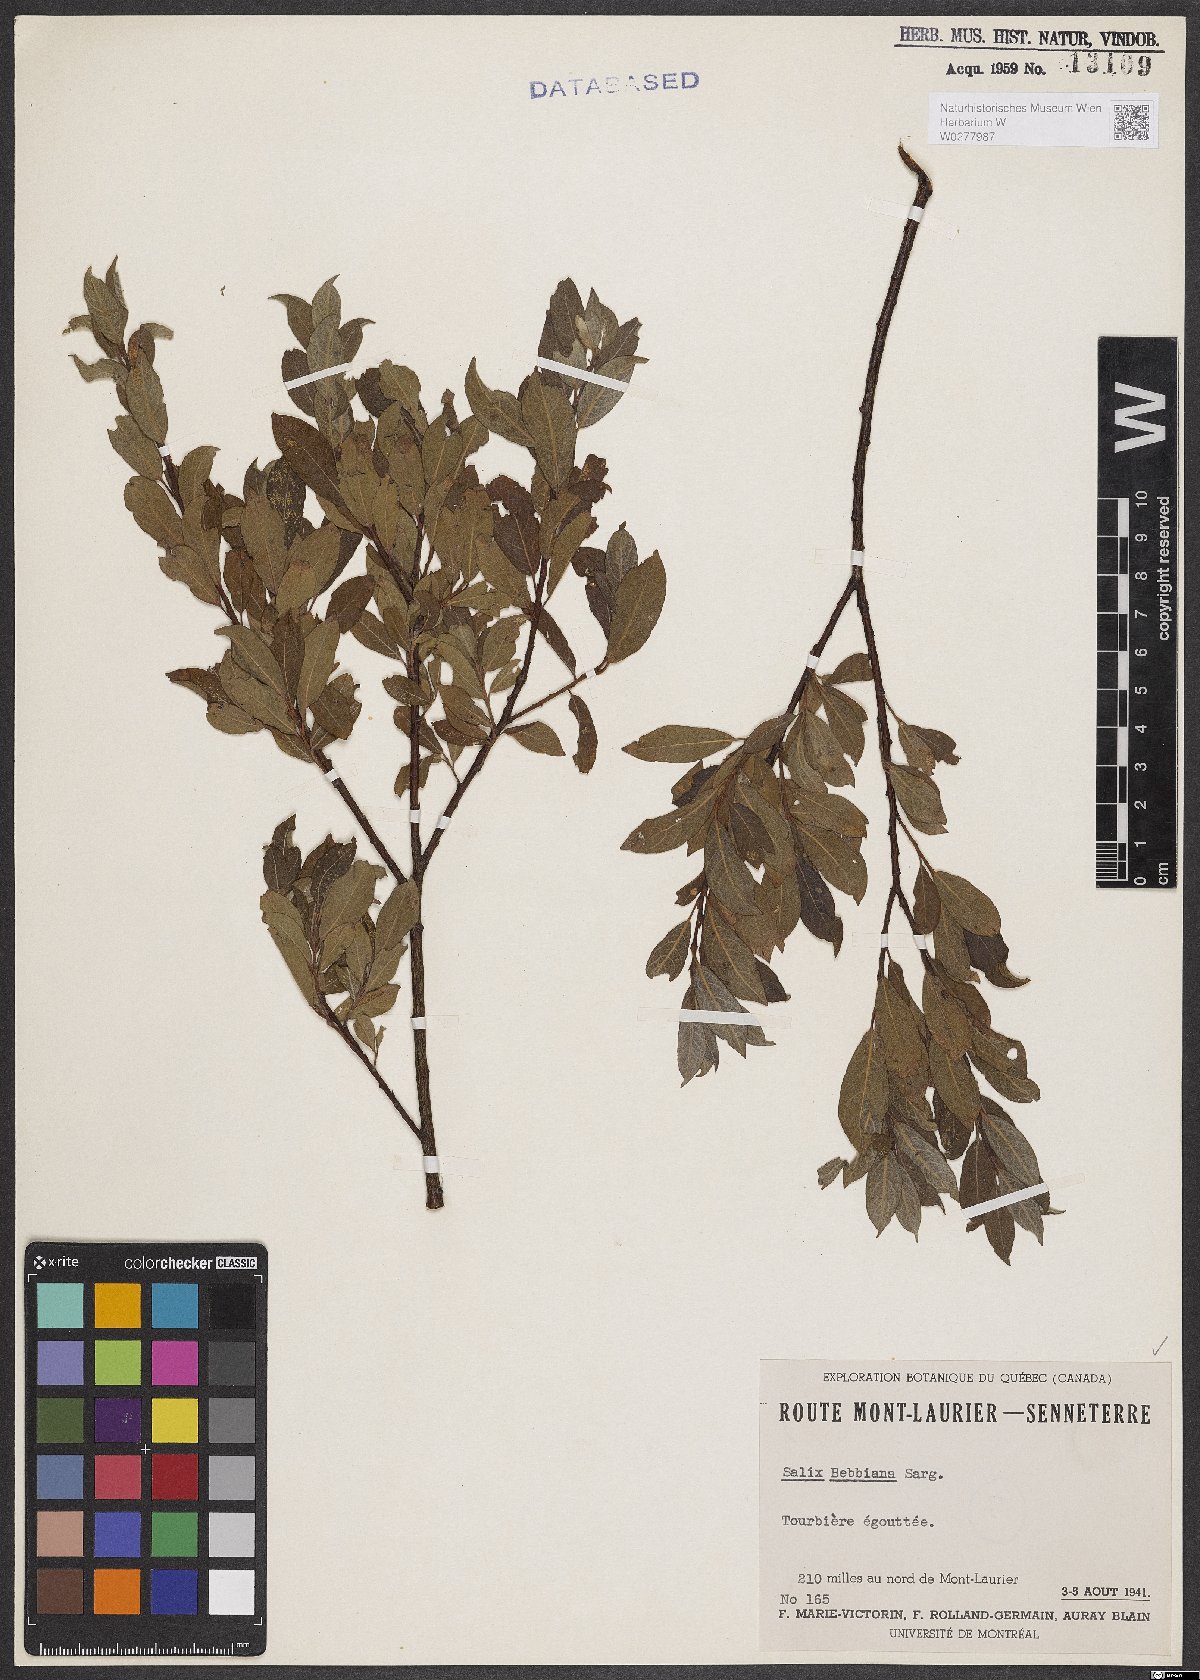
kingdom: Plantae
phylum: Tracheophyta
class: Magnoliopsida
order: Malpighiales
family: Salicaceae
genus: Salix
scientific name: Salix bebbiana
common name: Bebb's willow
